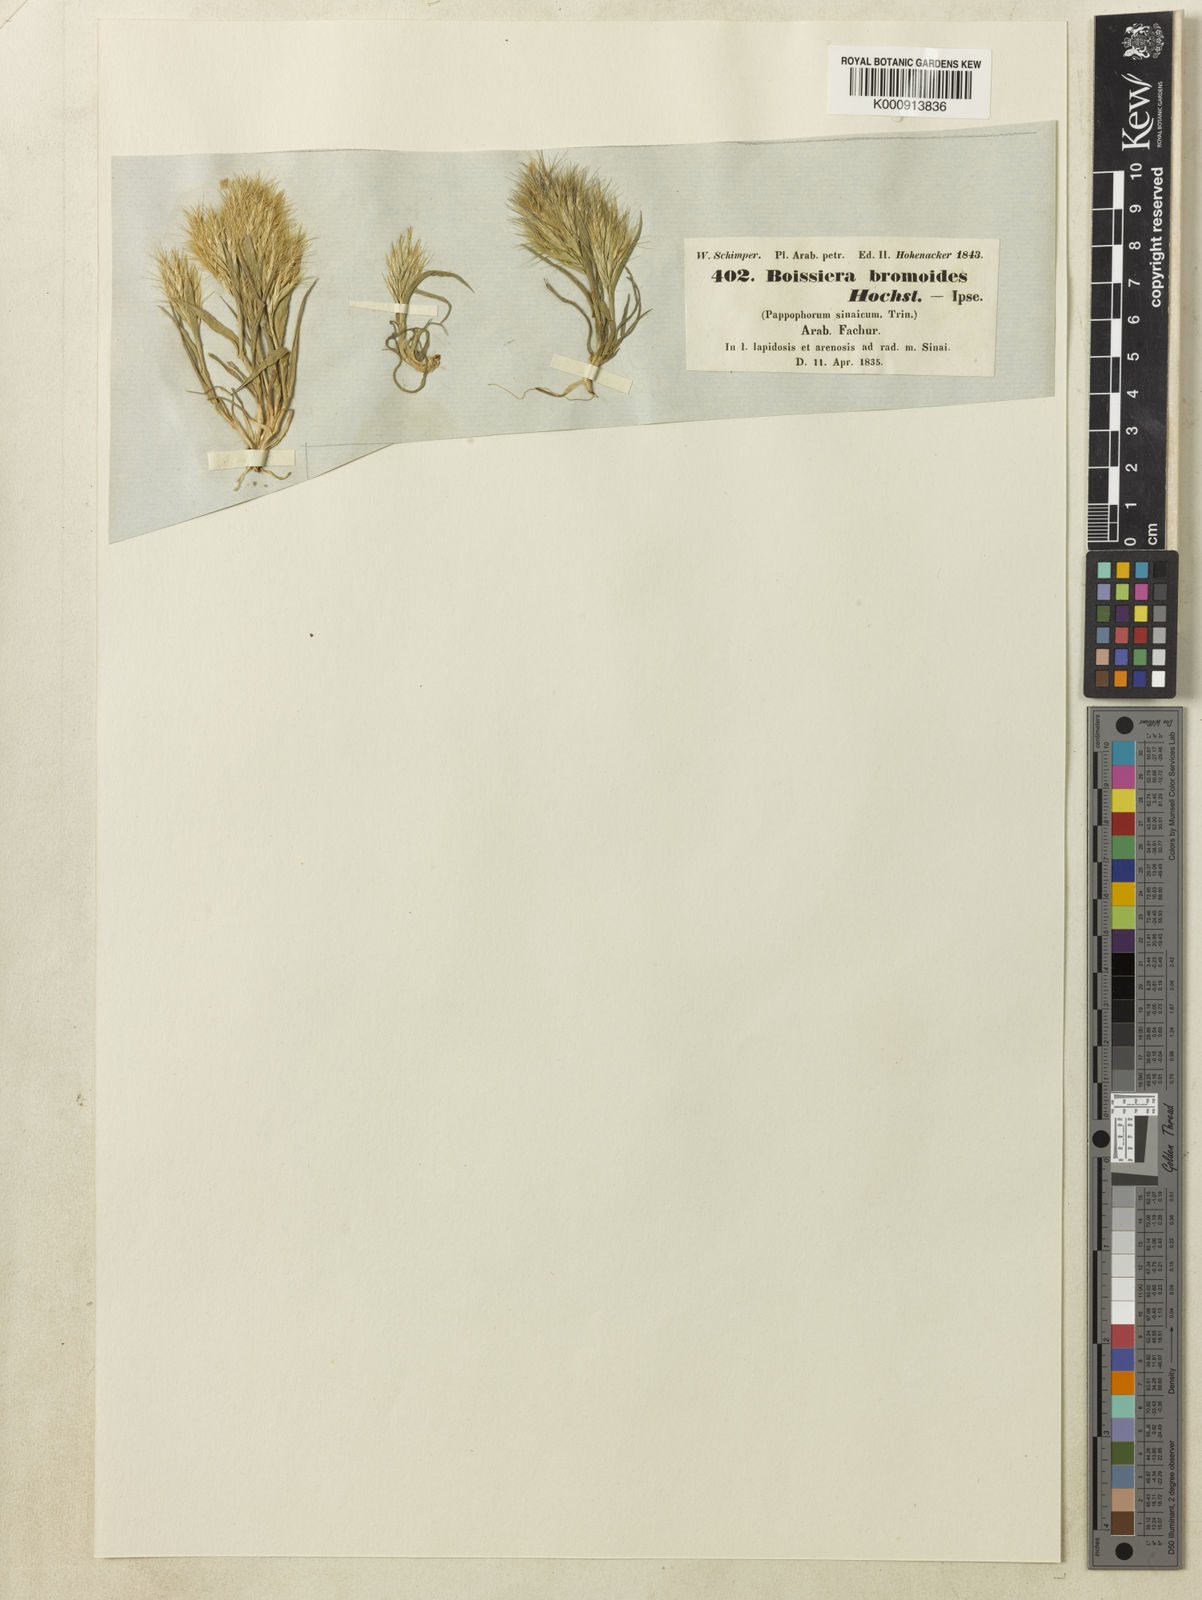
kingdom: Plantae
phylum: Tracheophyta
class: Liliopsida
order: Poales
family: Poaceae
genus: Bromus
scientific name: Bromus pumilio
